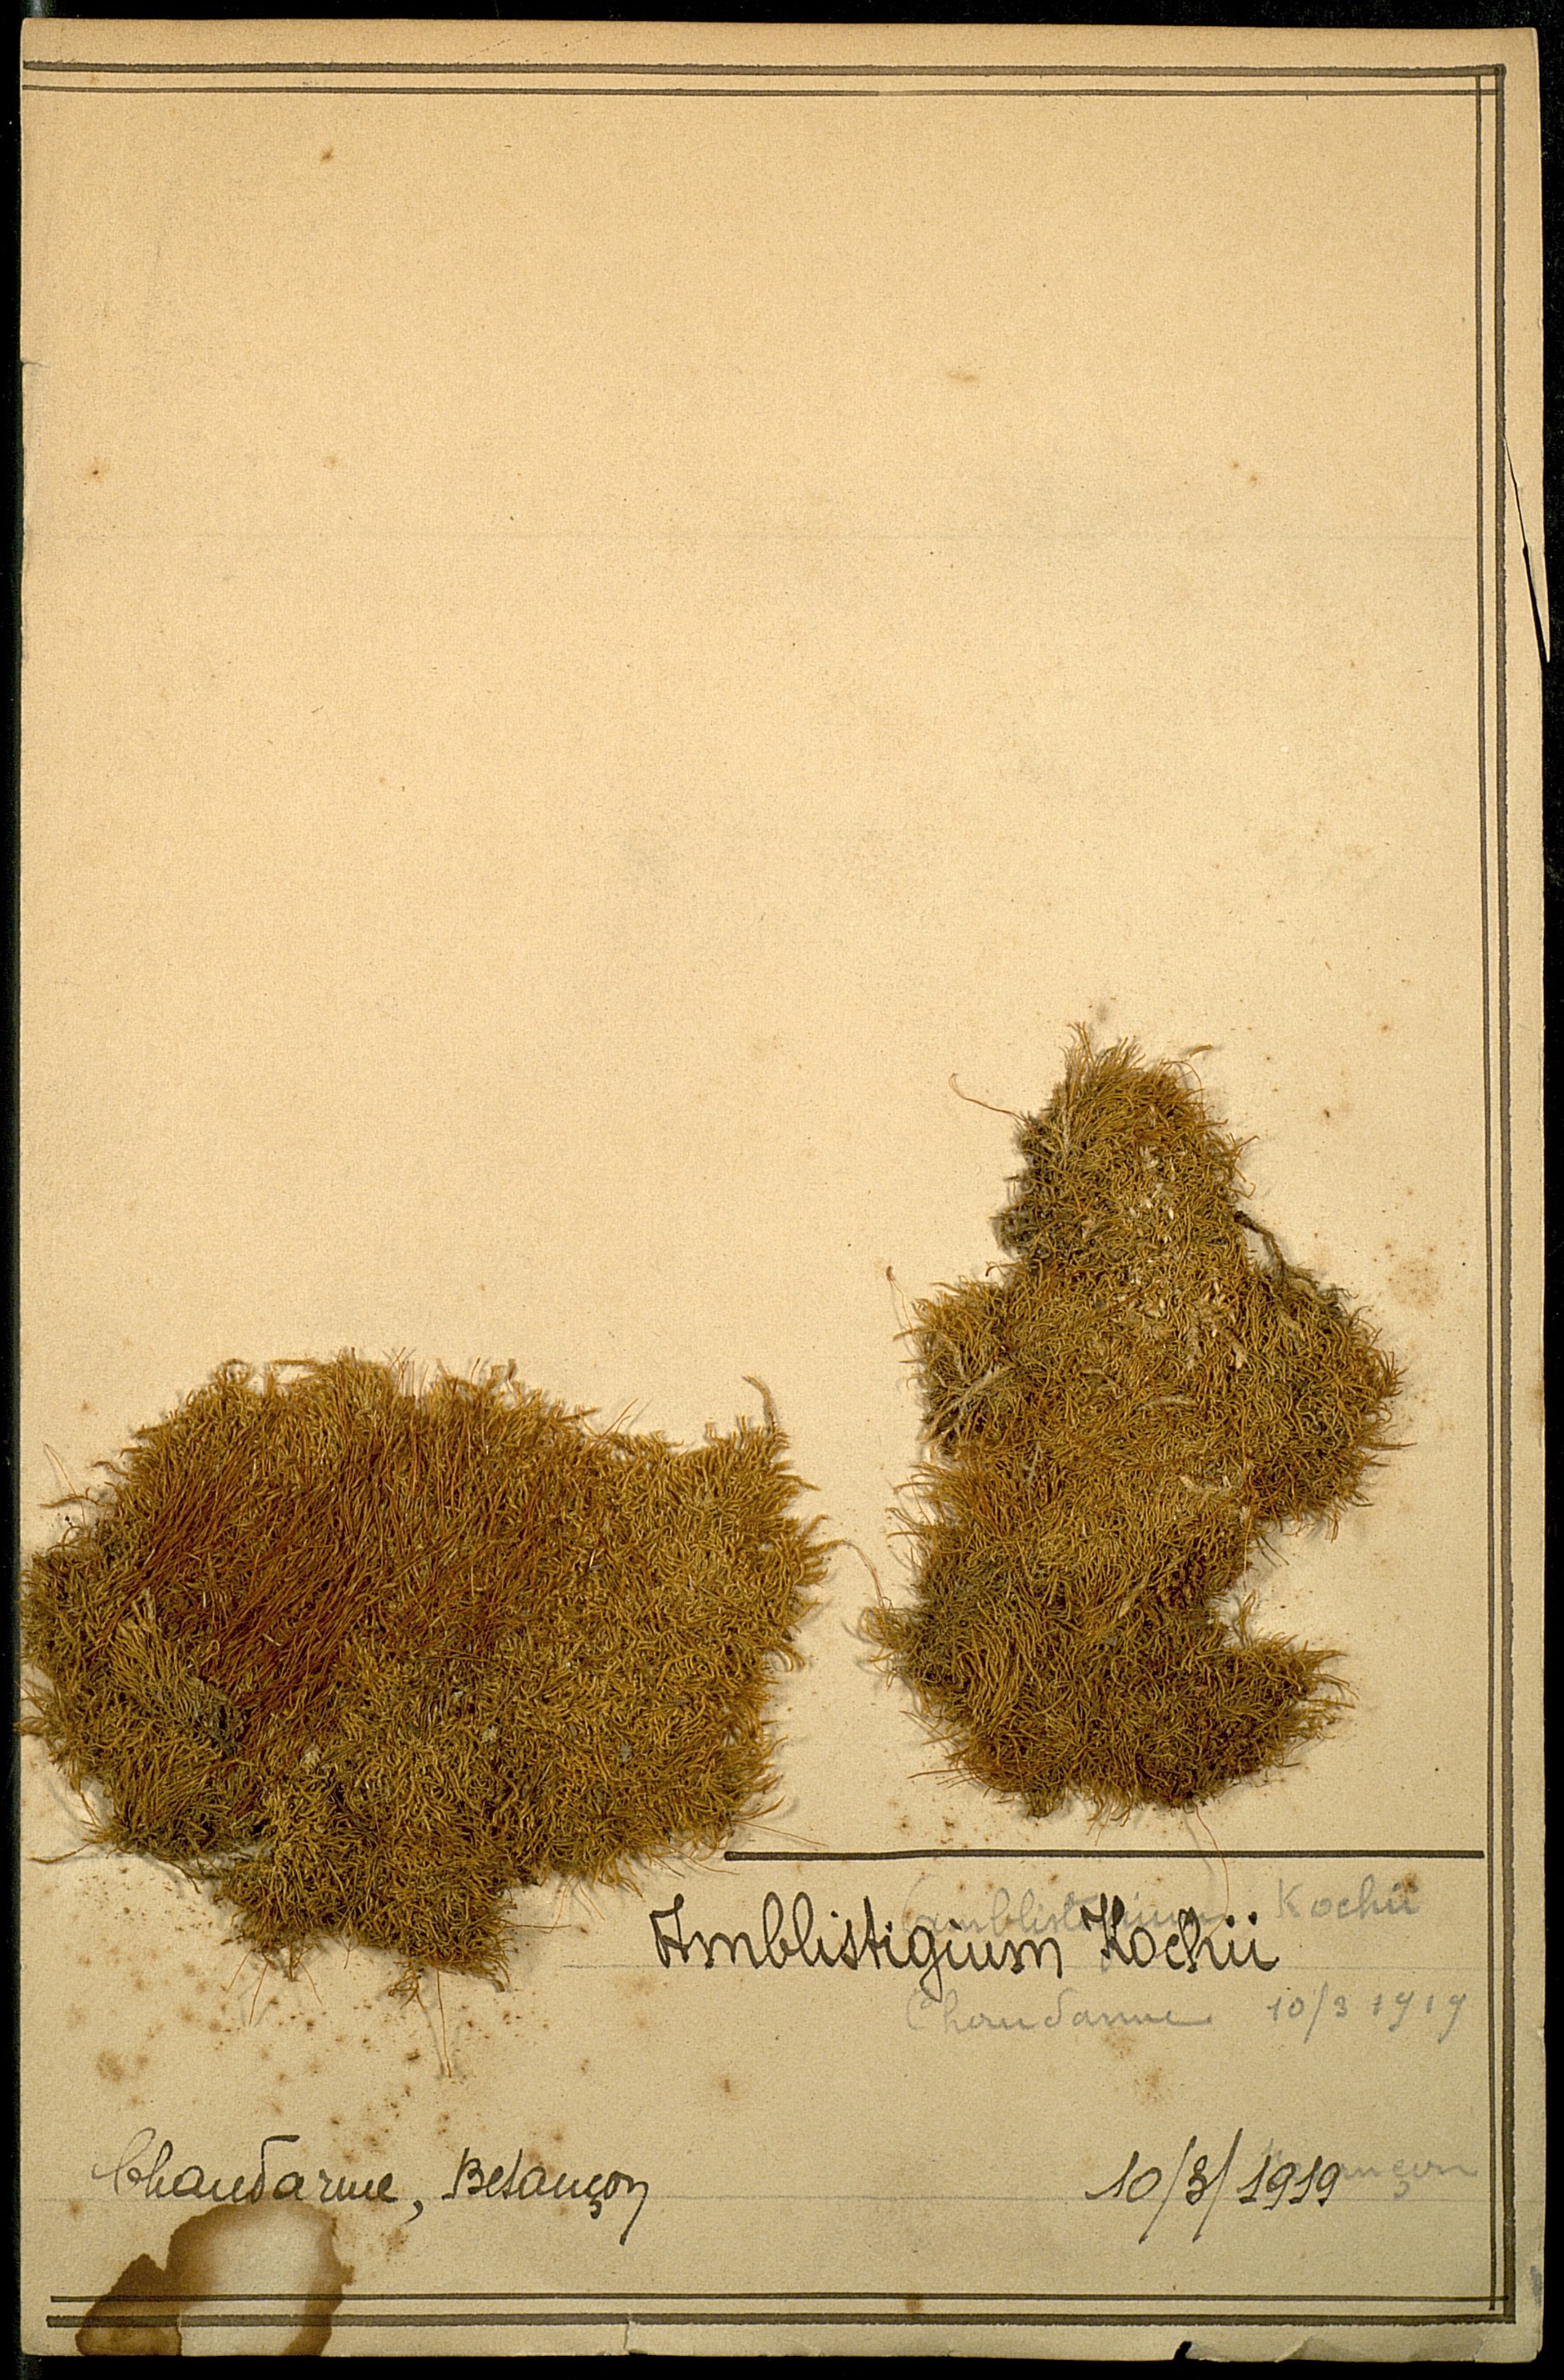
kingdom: Plantae
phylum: Bryophyta
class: Bryopsida
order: Hypnales
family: Amblystegiaceae
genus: Leptodictyum
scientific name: Leptodictyum riparium
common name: Riparian feather moss
